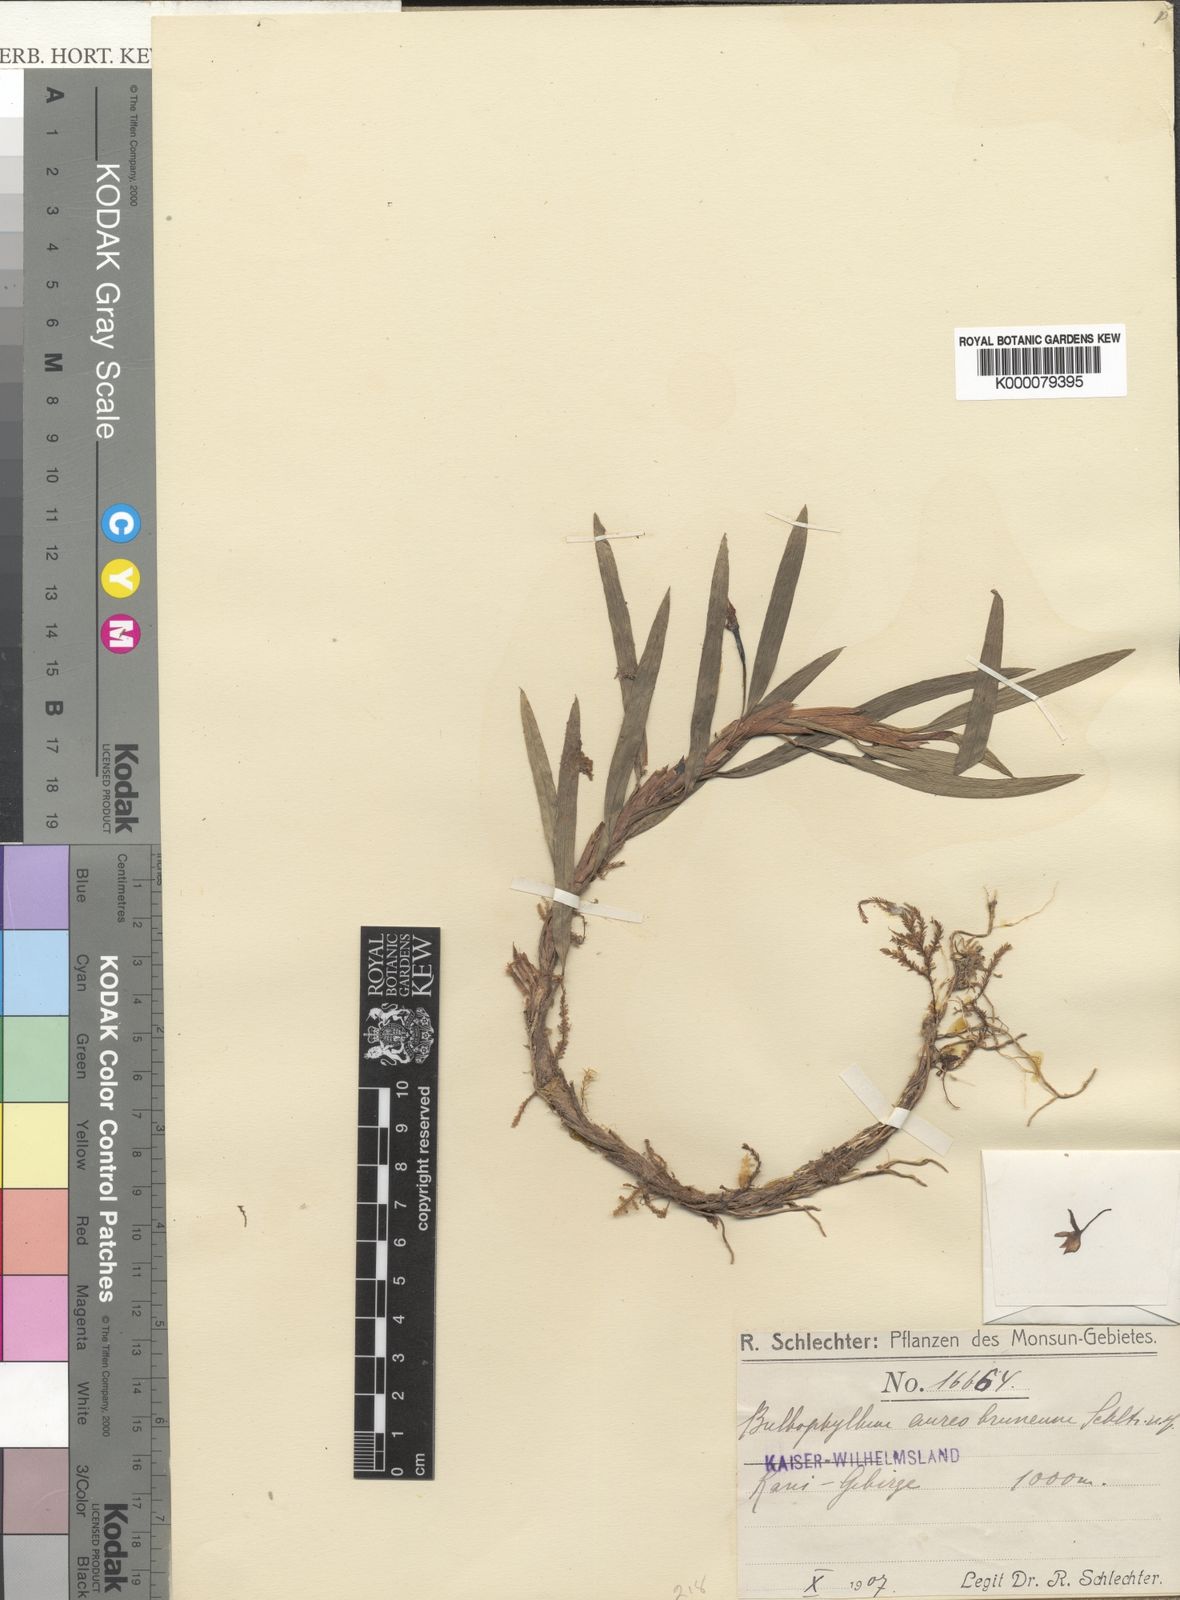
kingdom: Plantae
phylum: Tracheophyta
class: Liliopsida
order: Asparagales
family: Orchidaceae
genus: Bulbophyllum
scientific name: Bulbophyllum aureobrunneum
